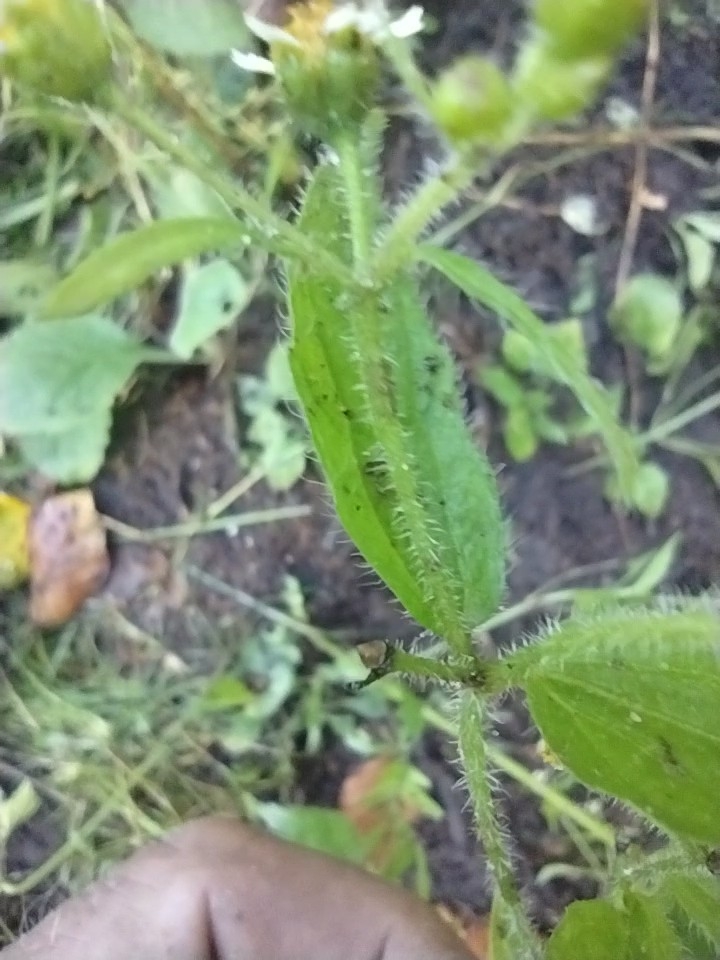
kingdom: Plantae
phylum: Tracheophyta
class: Magnoliopsida
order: Asterales
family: Asteraceae
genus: Galinsoga
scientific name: Galinsoga quadriradiata
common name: Kirtel-kortstråle
